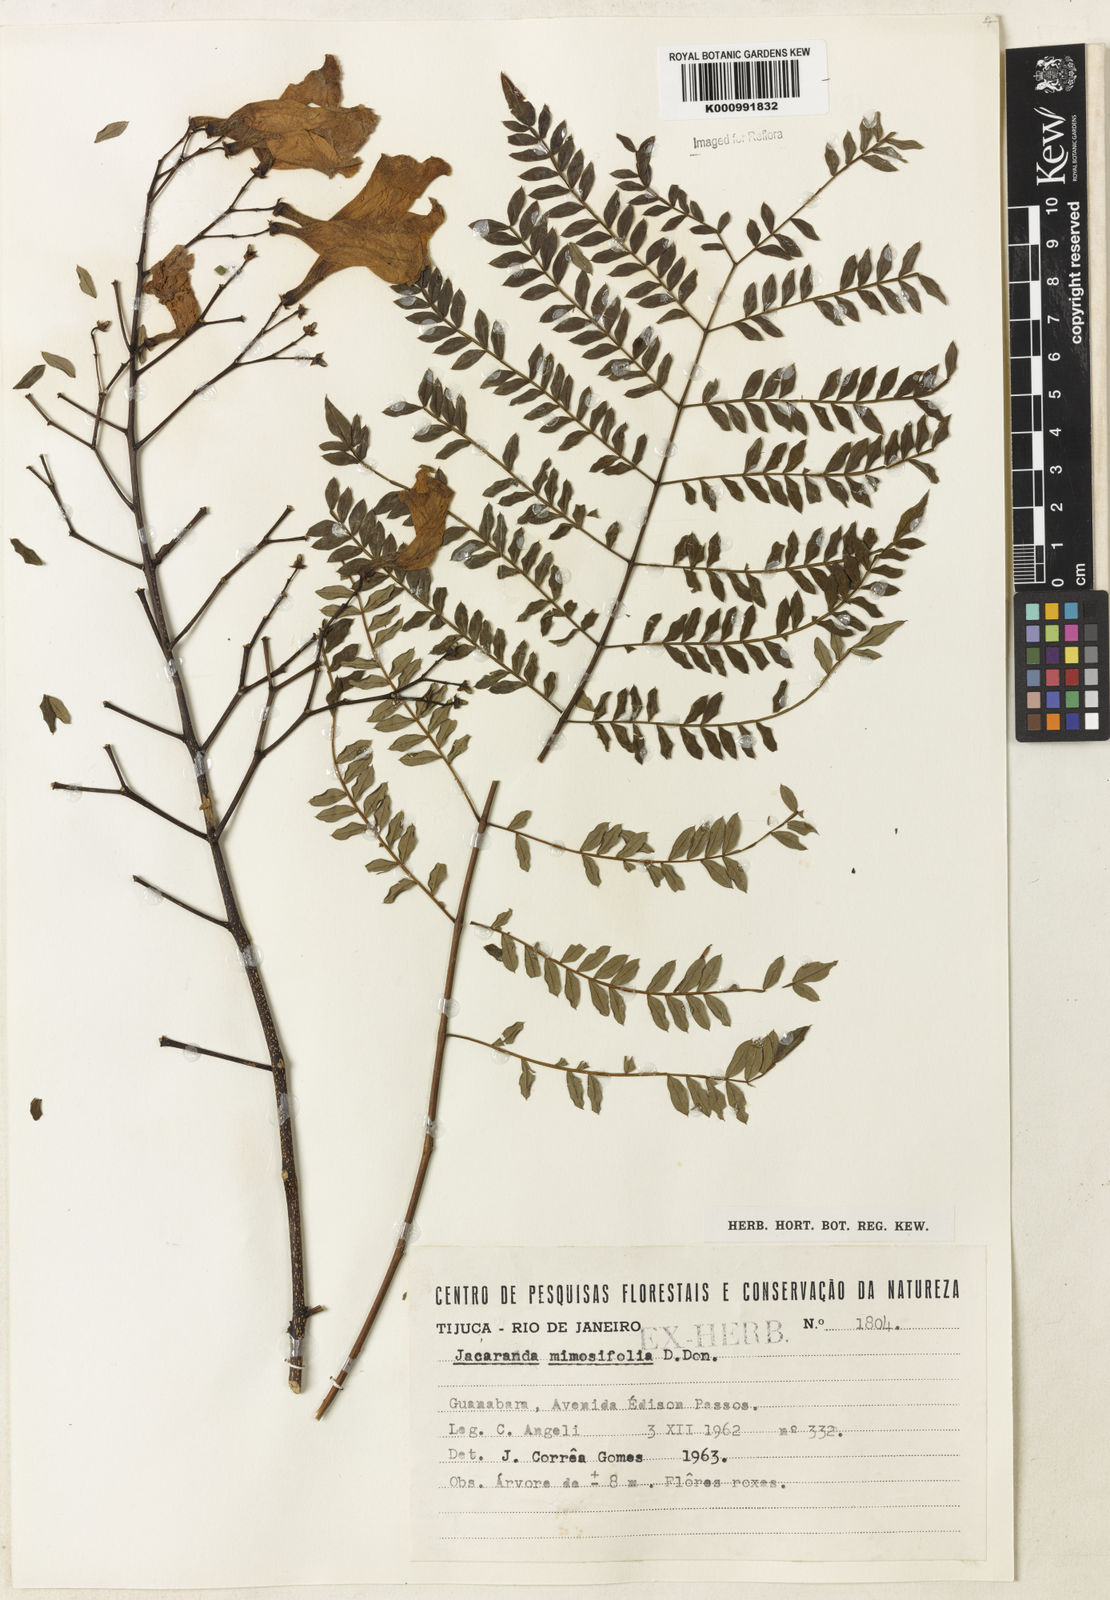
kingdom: Plantae
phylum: Tracheophyta
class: Magnoliopsida
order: Lamiales
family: Bignoniaceae
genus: Jacaranda
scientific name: Jacaranda mimosifolia
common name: Black poui
